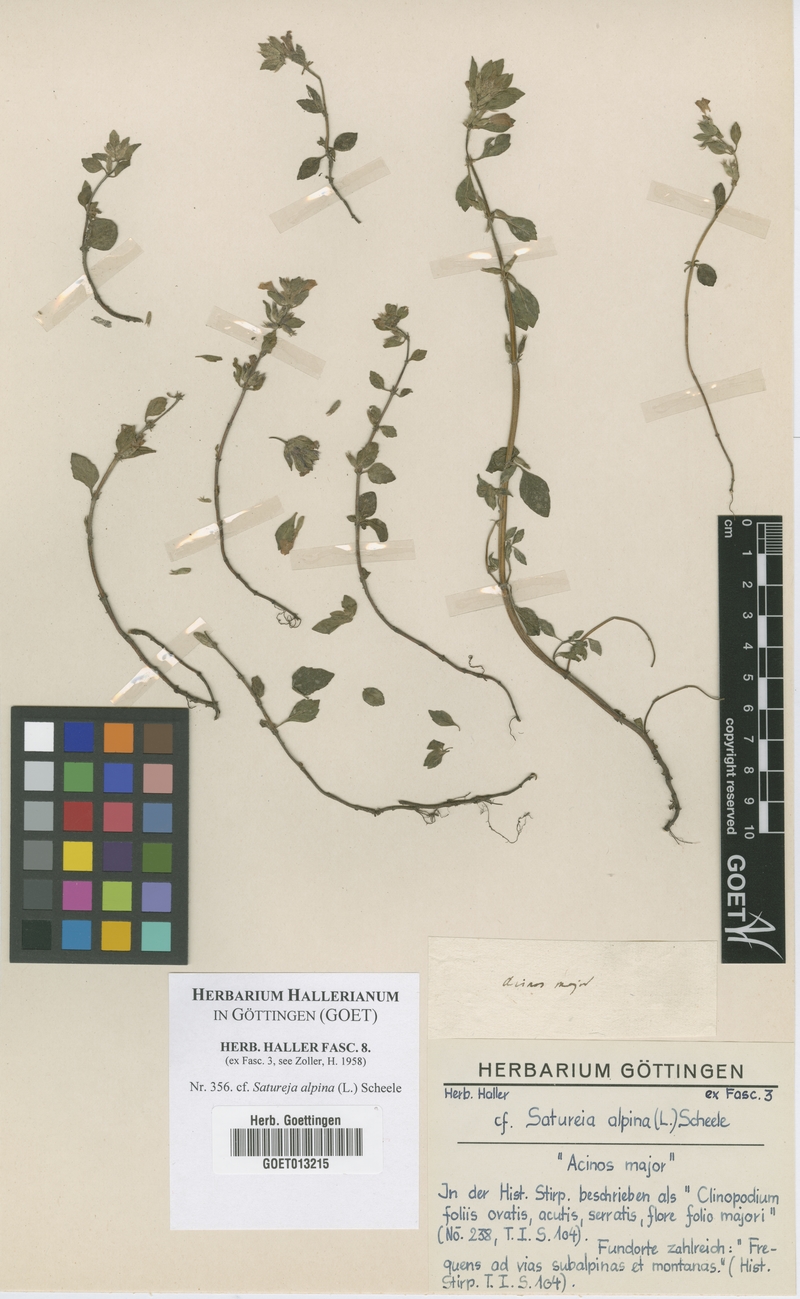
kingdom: Plantae
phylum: Tracheophyta
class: Magnoliopsida
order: Lamiales
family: Lamiaceae
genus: Clinopodium
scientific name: Clinopodium alpinum
